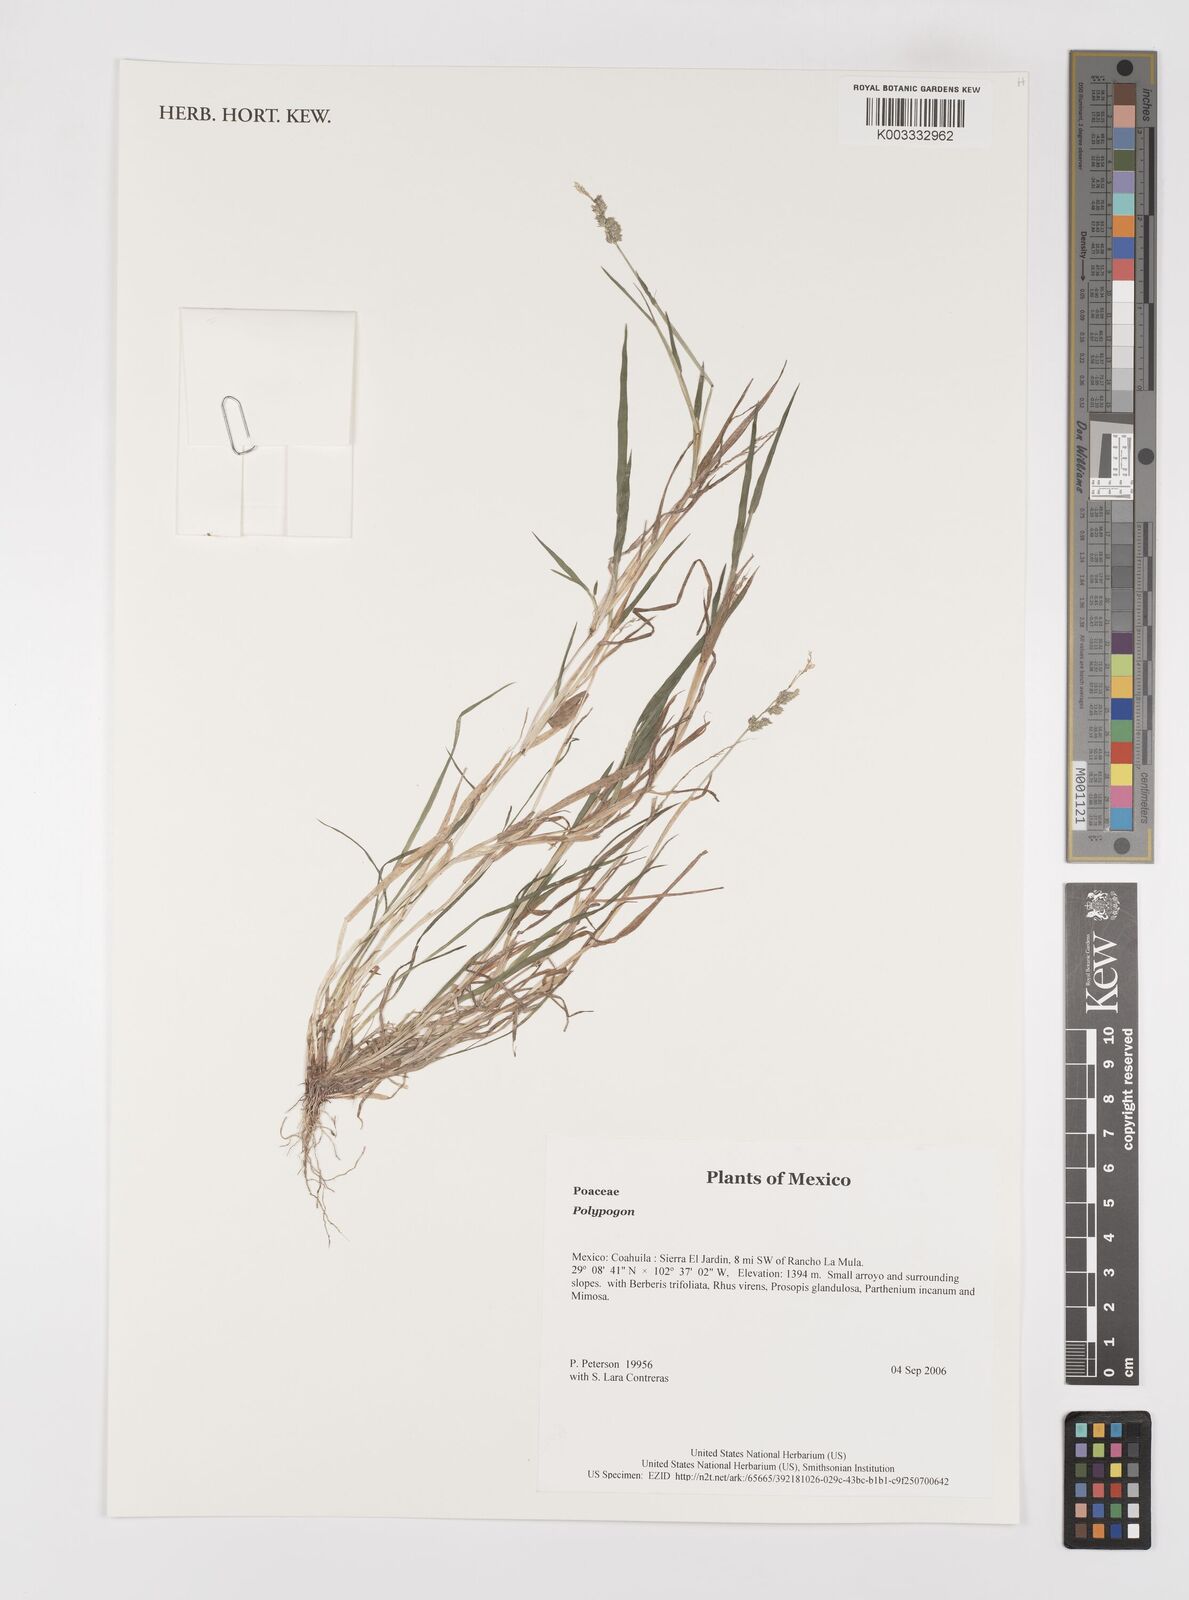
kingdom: Plantae
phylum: Tracheophyta
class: Liliopsida
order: Poales
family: Poaceae
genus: Polypogon
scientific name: Polypogon
